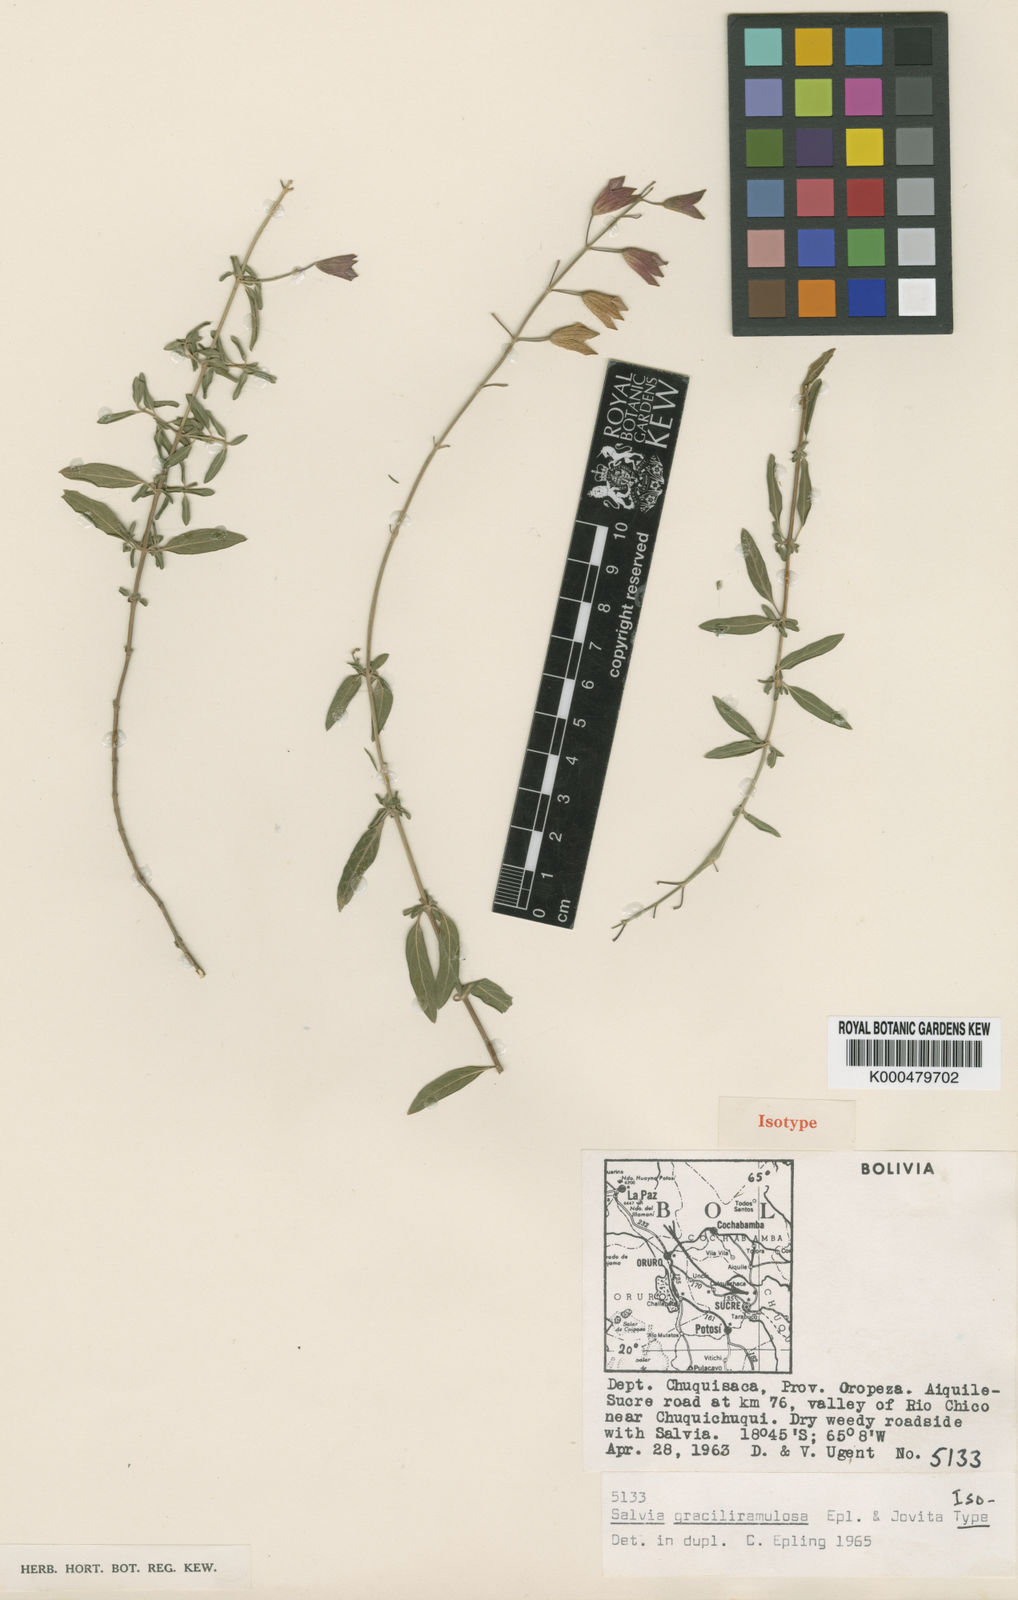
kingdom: Plantae
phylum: Tracheophyta
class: Magnoliopsida
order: Lamiales
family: Lamiaceae
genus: Salvia
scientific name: Salvia graciliramulosa
